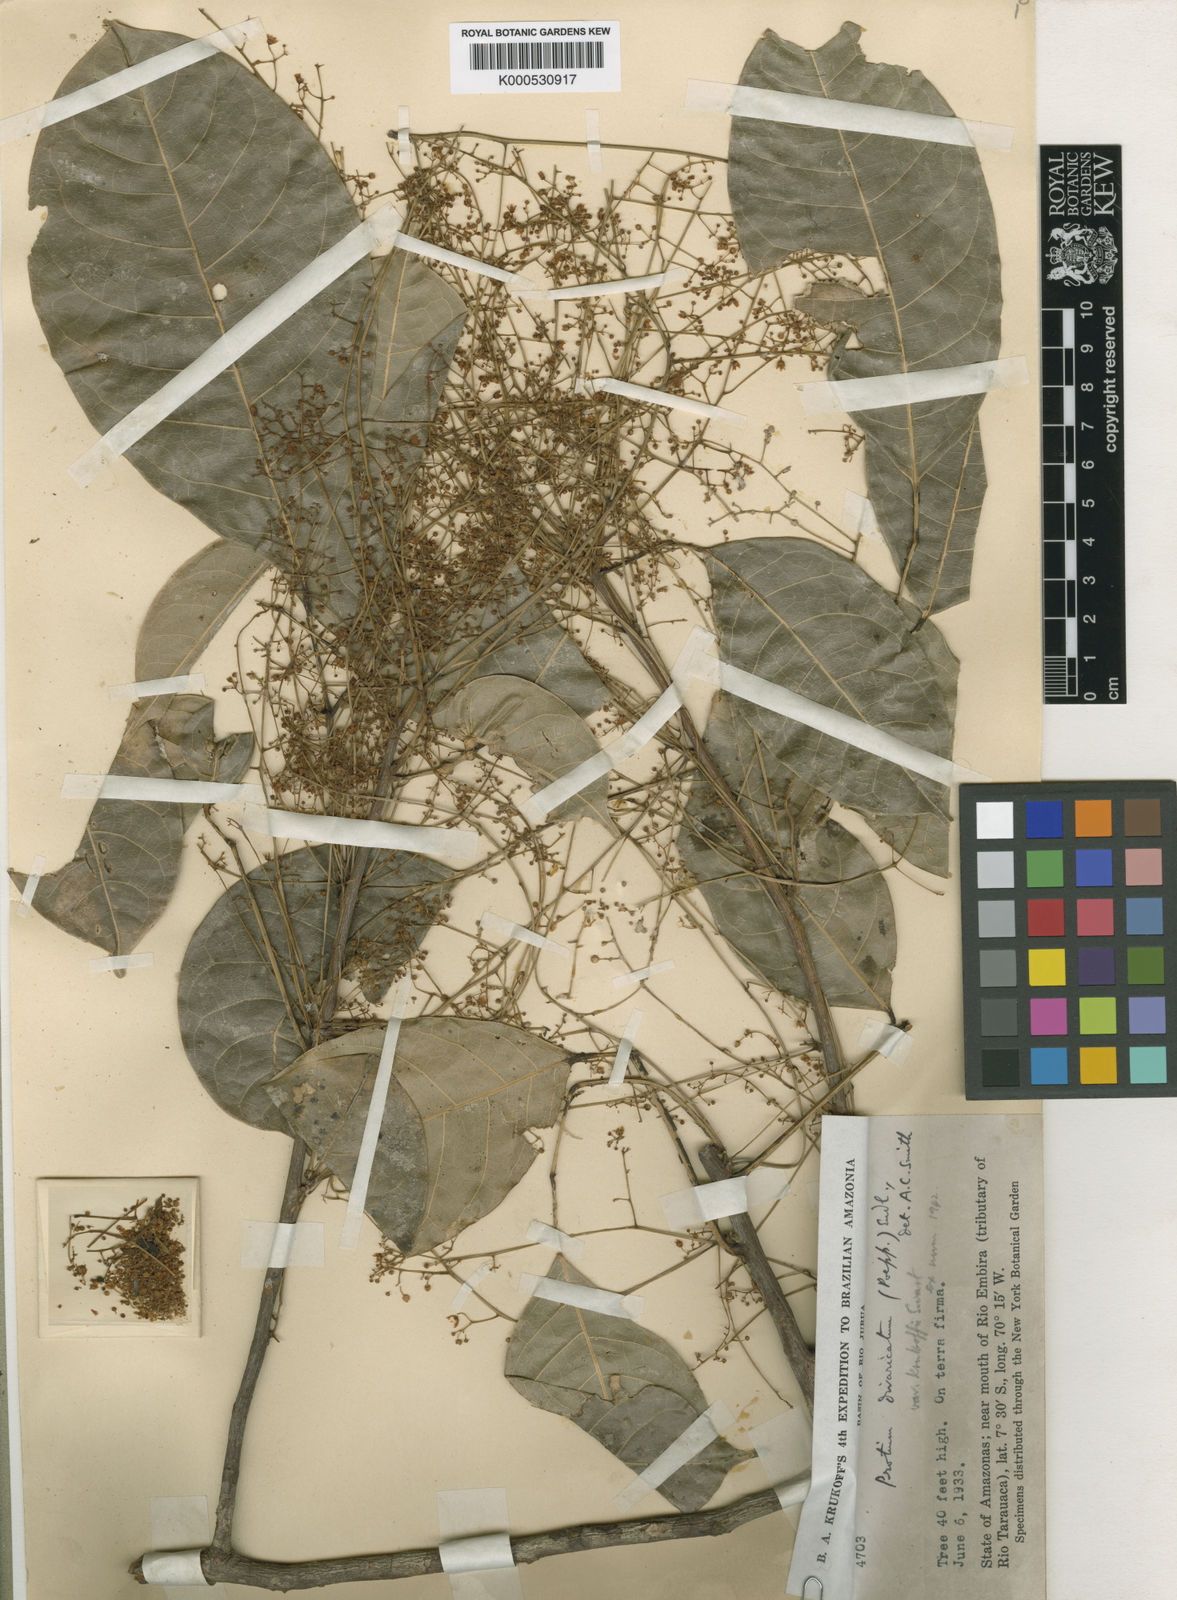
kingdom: Plantae
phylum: Tracheophyta
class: Magnoliopsida
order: Sapindales
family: Burseraceae
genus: Protium
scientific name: Protium divaricatum
